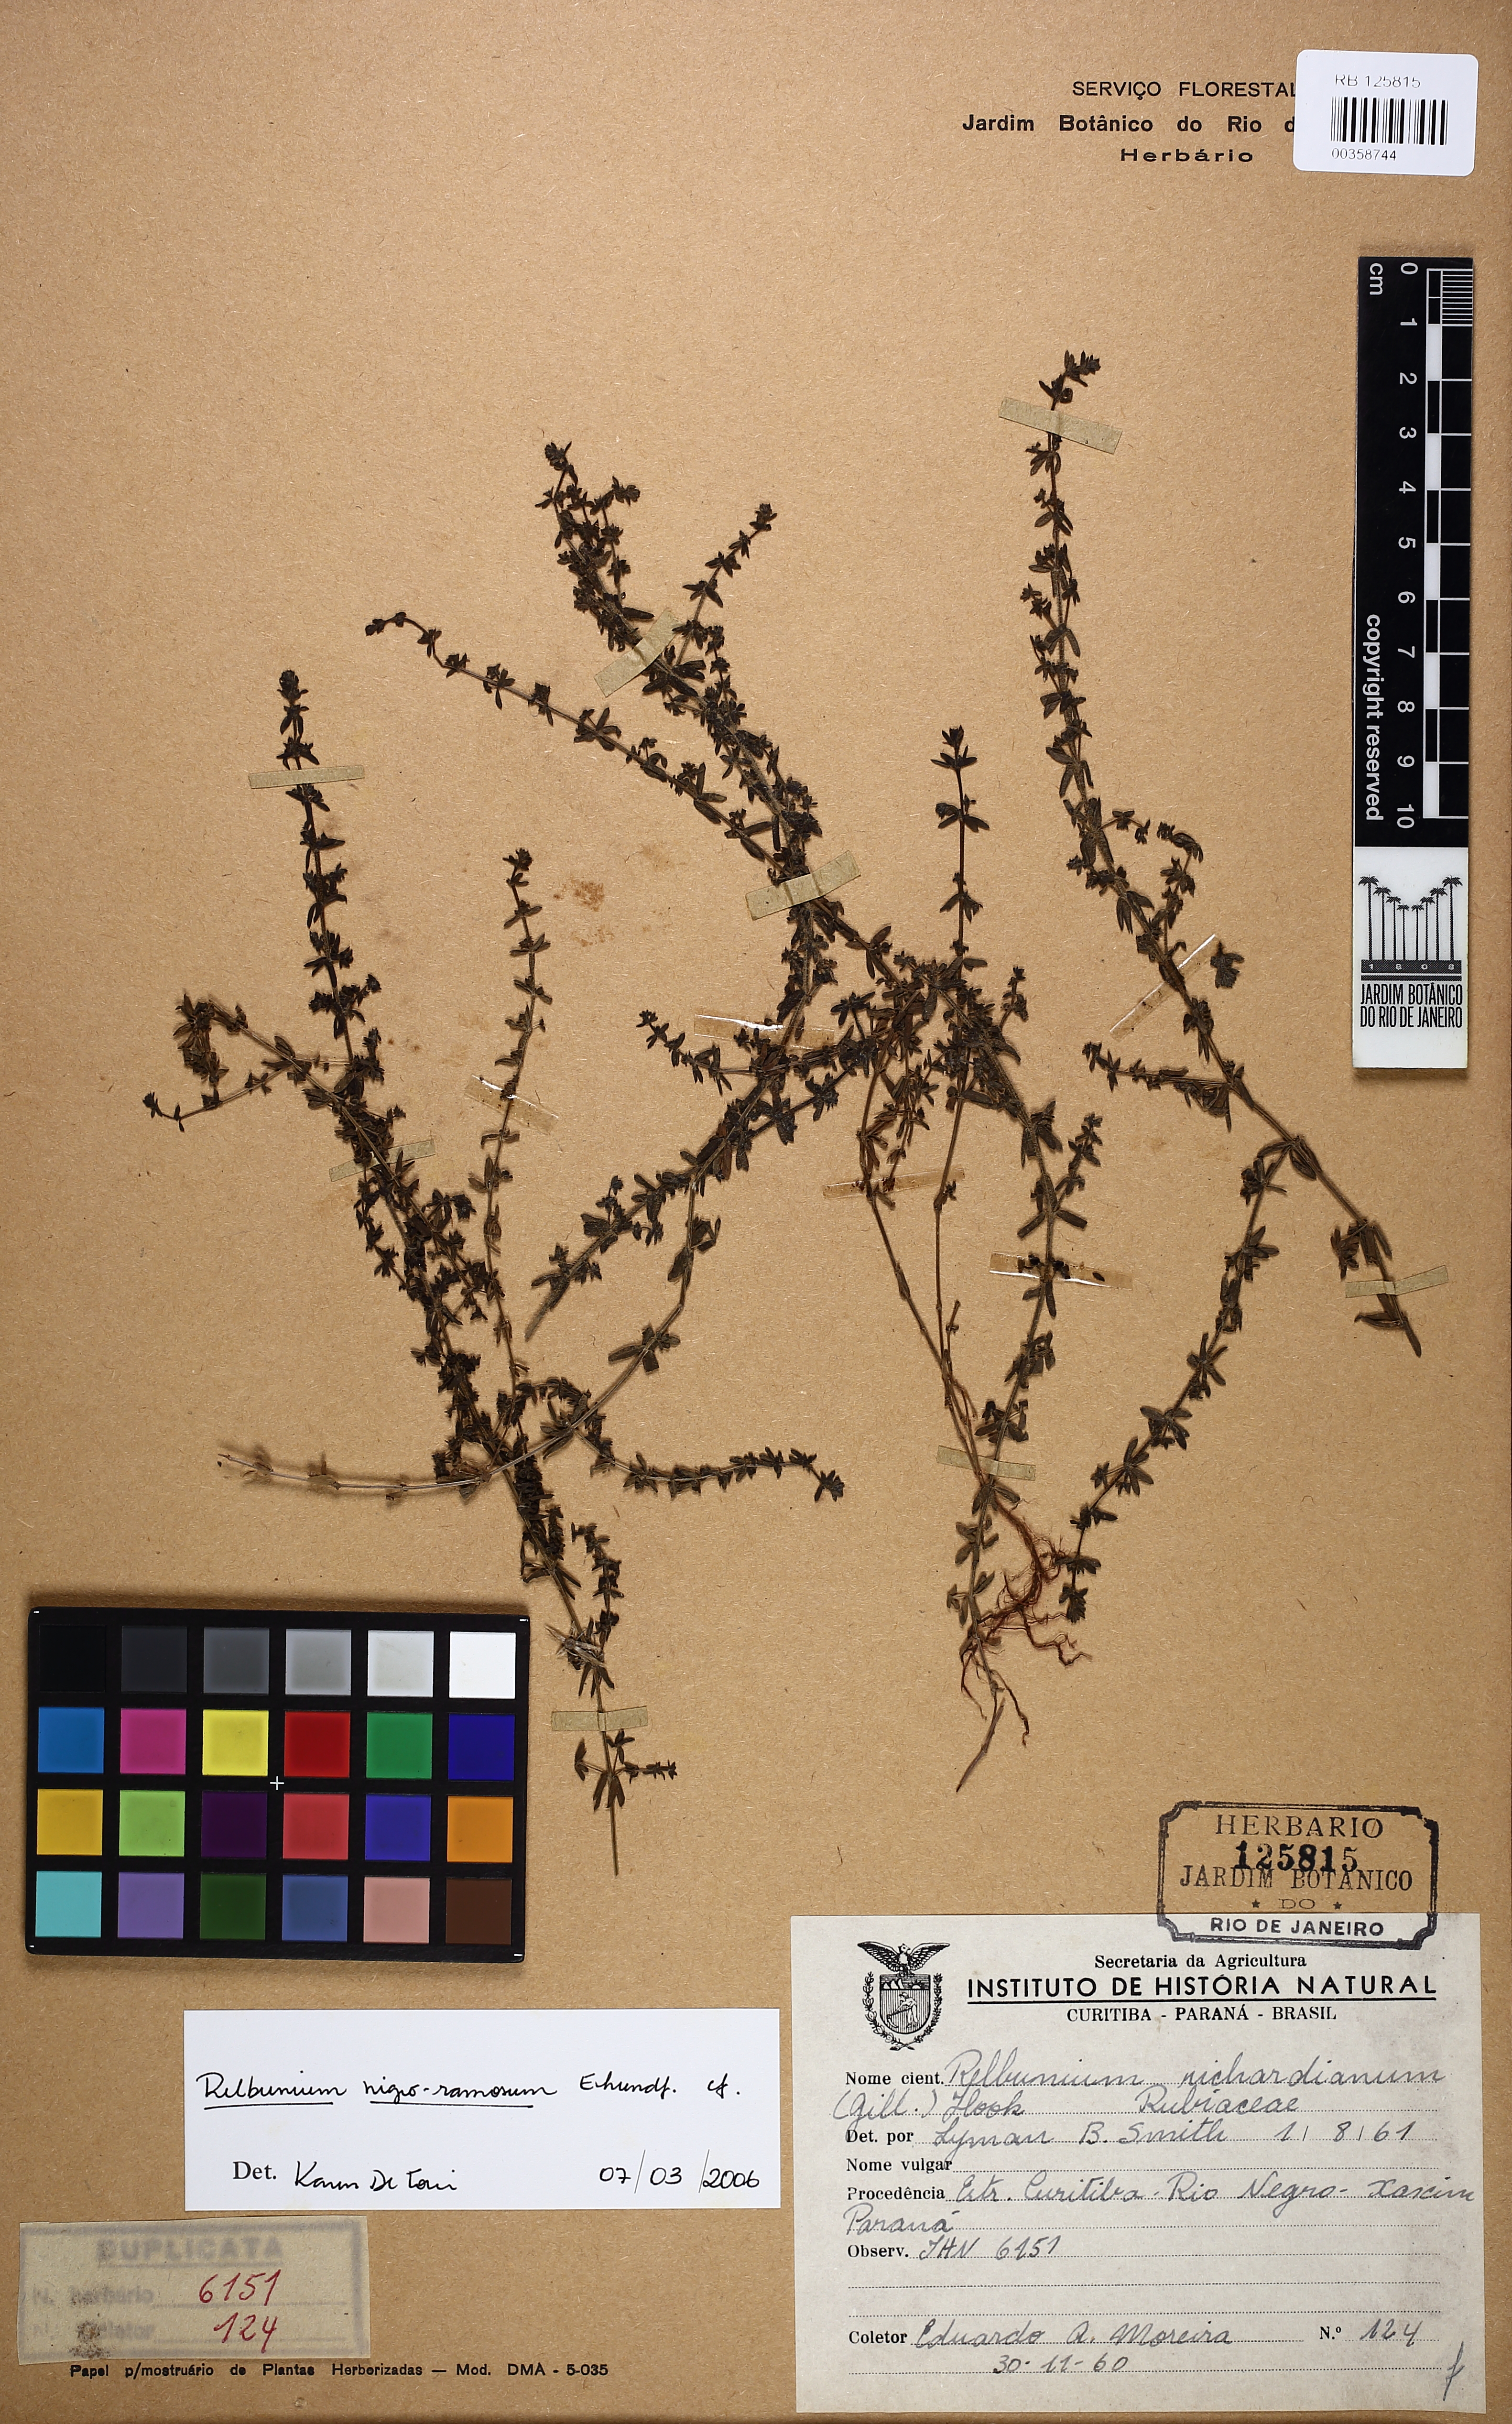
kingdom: Plantae
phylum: Tracheophyta
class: Magnoliopsida
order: Gentianales
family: Rubiaceae
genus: Galium
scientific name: Galium nigroramosum
